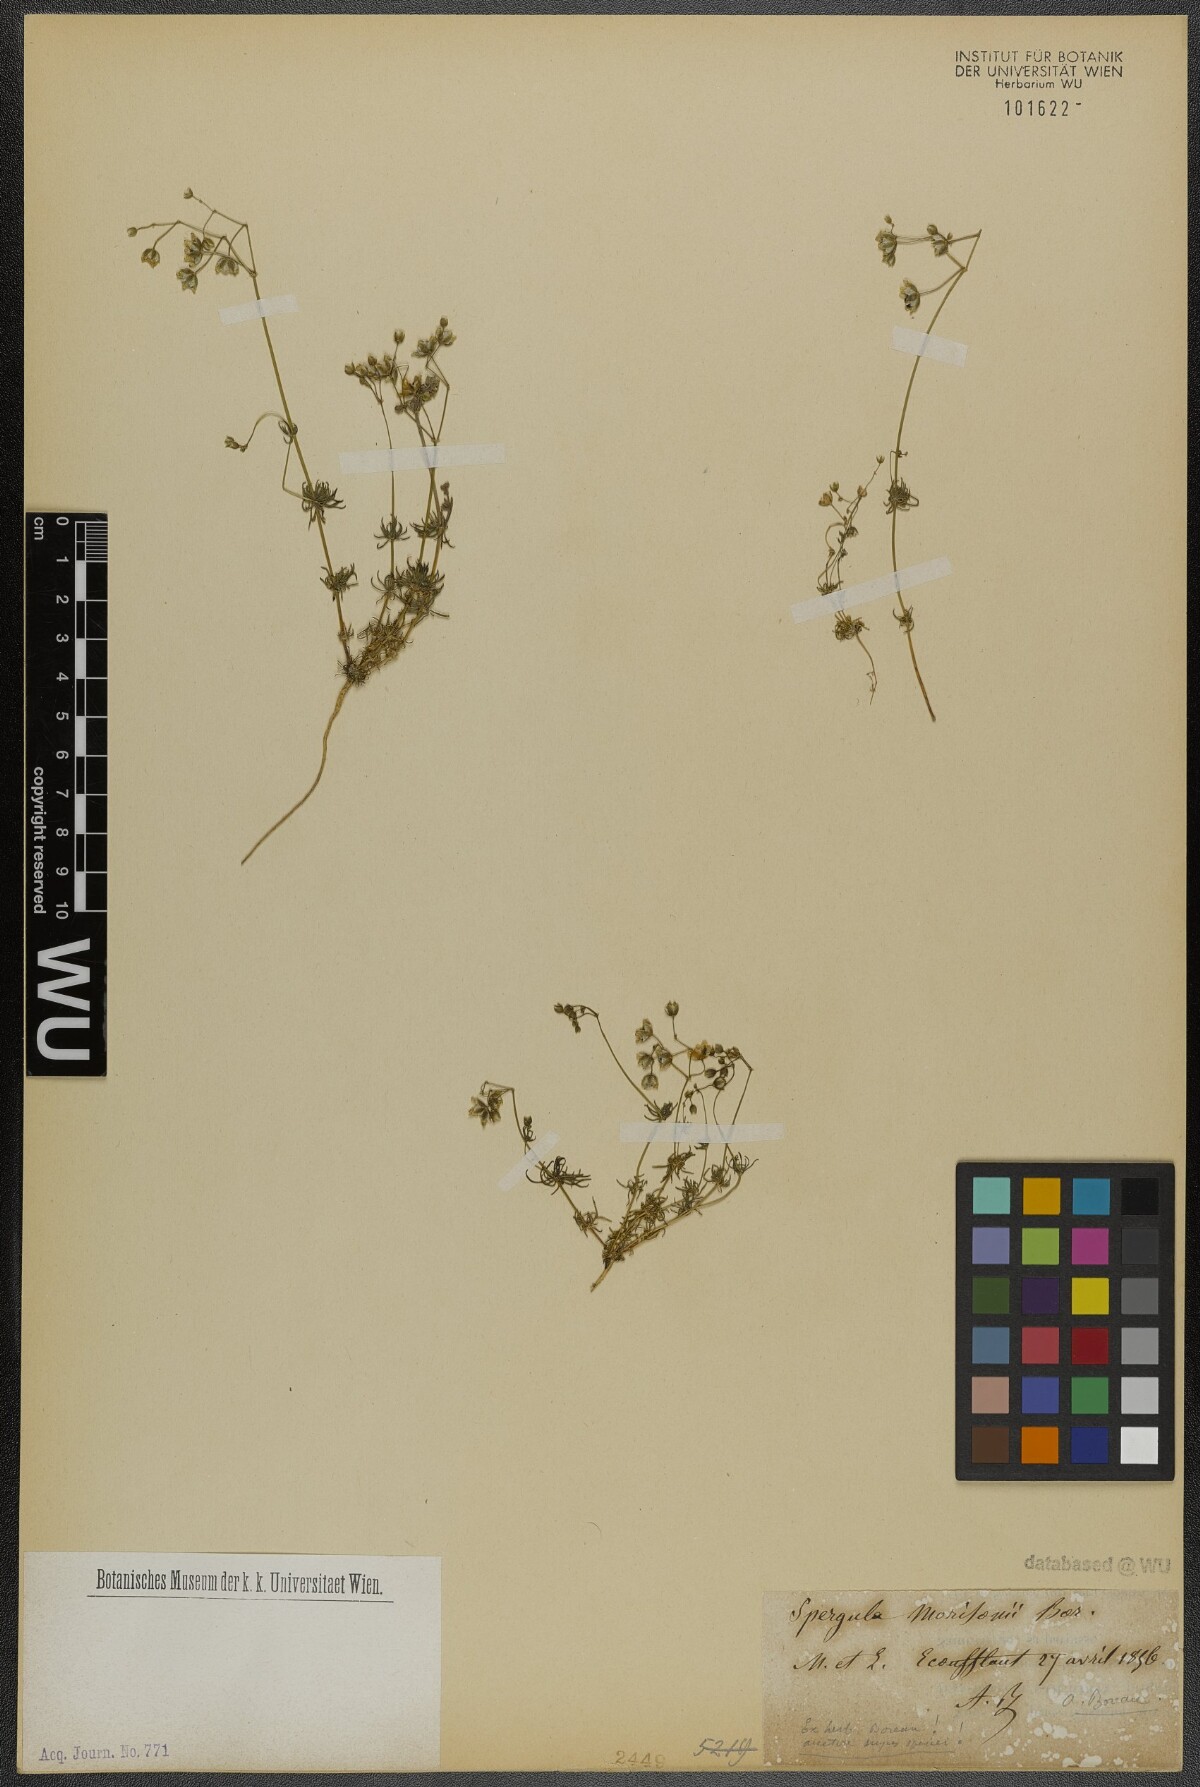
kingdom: Plantae
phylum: Tracheophyta
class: Magnoliopsida
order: Caryophyllales
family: Caryophyllaceae
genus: Spergula
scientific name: Spergula morisonii
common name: Pearlwort spurrey
